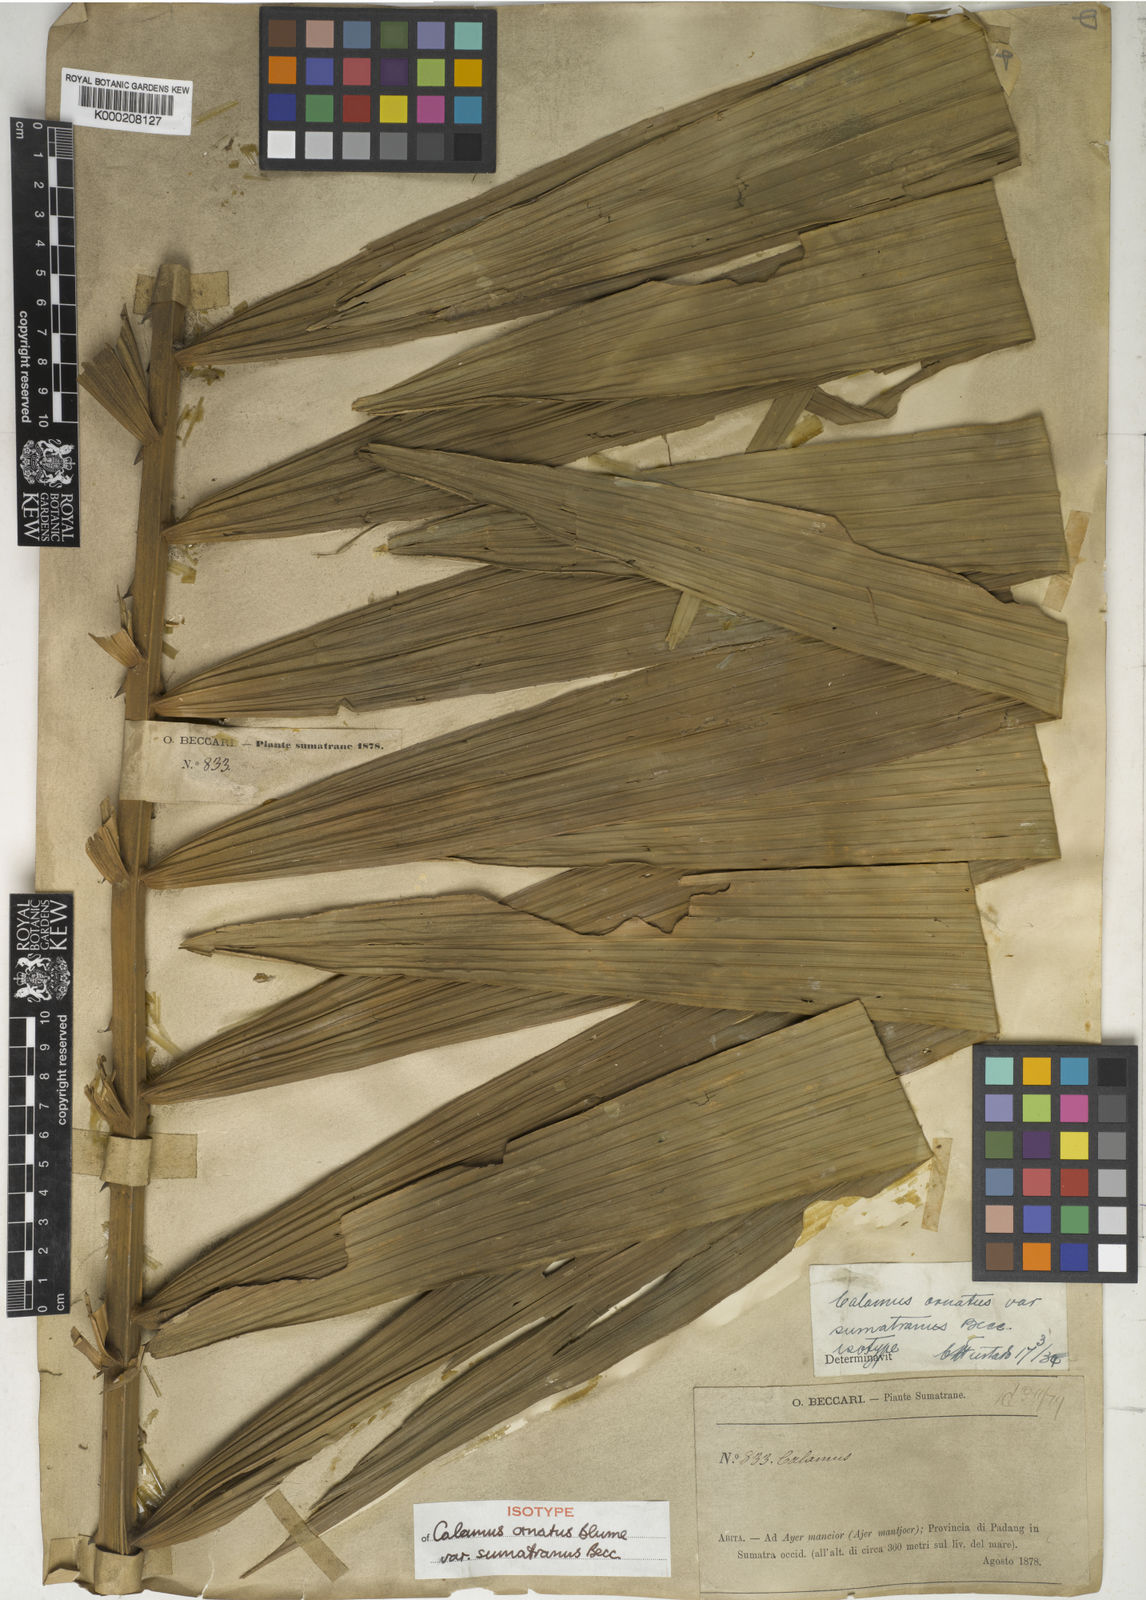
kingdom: Plantae
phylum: Tracheophyta
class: Liliopsida
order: Arecales
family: Arecaceae
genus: Calamus
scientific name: Calamus ornatus
